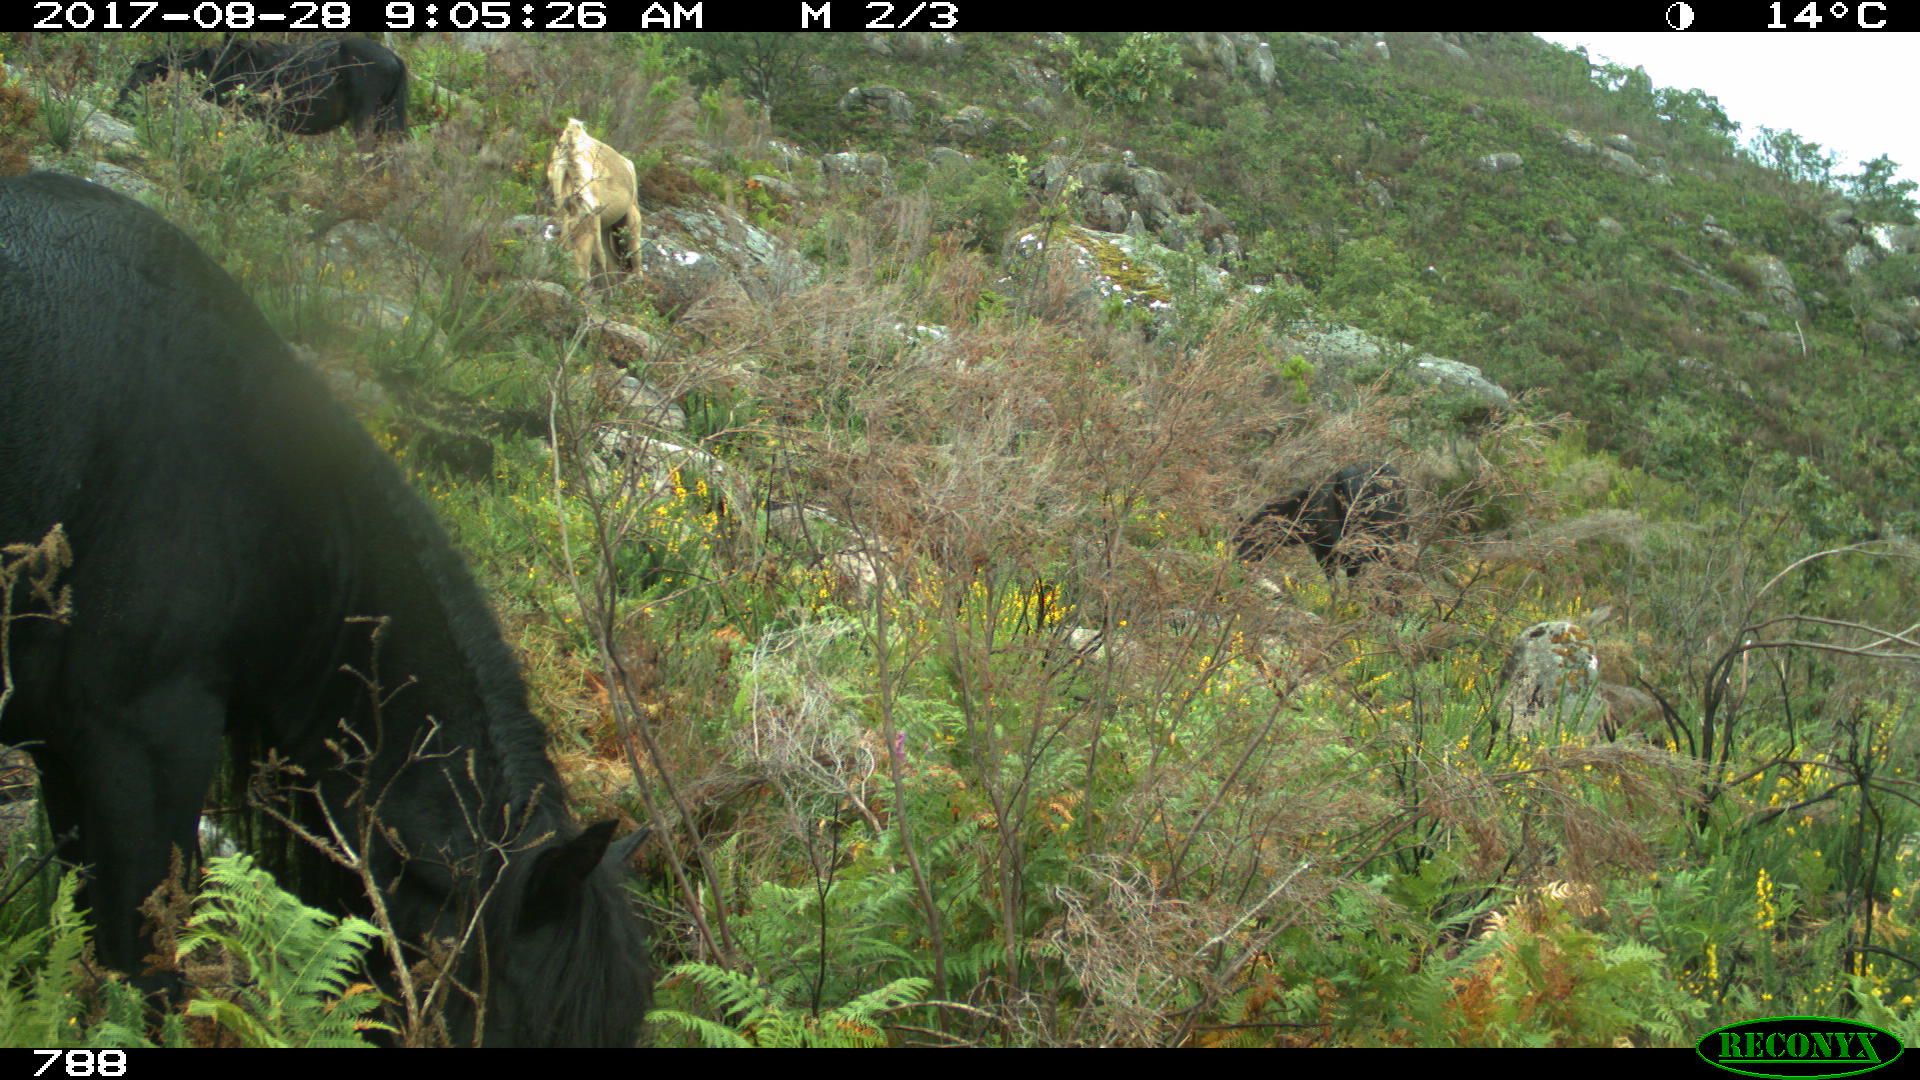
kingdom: Animalia
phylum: Chordata
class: Mammalia
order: Perissodactyla
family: Equidae
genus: Equus
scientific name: Equus caballus
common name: Horse
